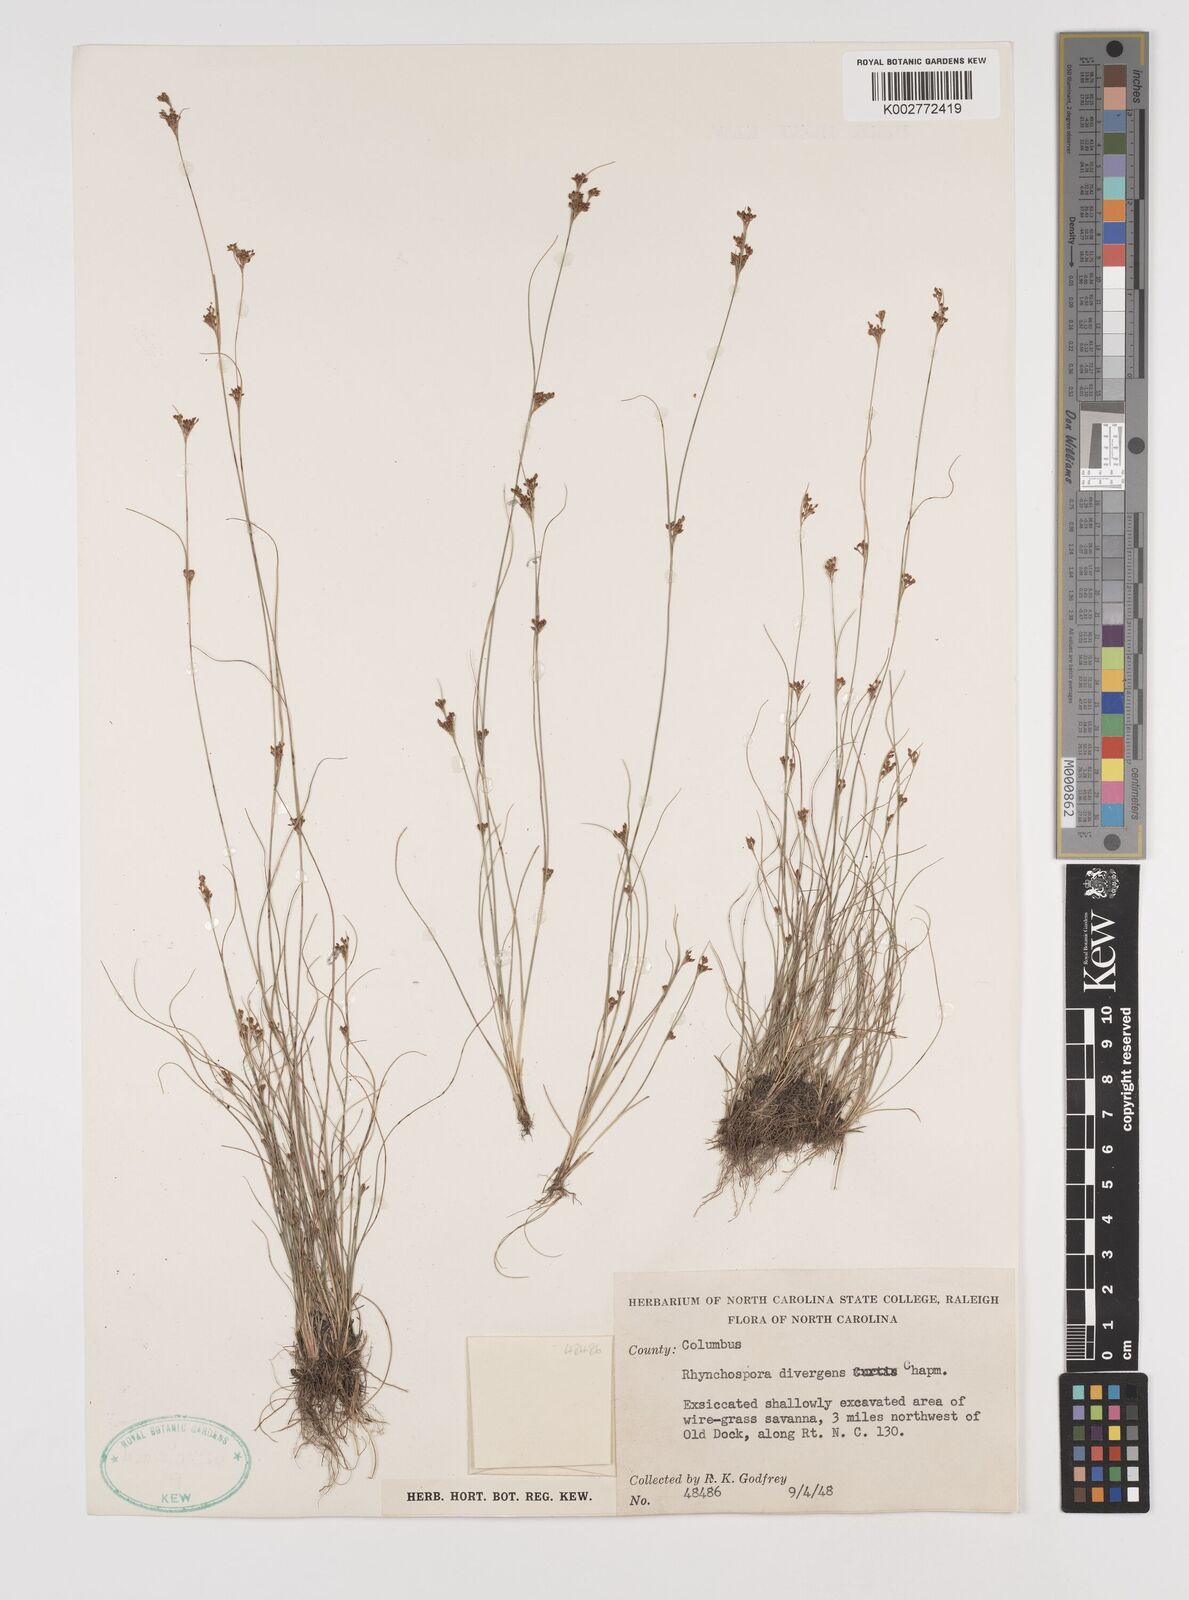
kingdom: Plantae
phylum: Tracheophyta
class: Liliopsida
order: Poales
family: Cyperaceae
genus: Rhynchospora
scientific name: Rhynchospora divergens
